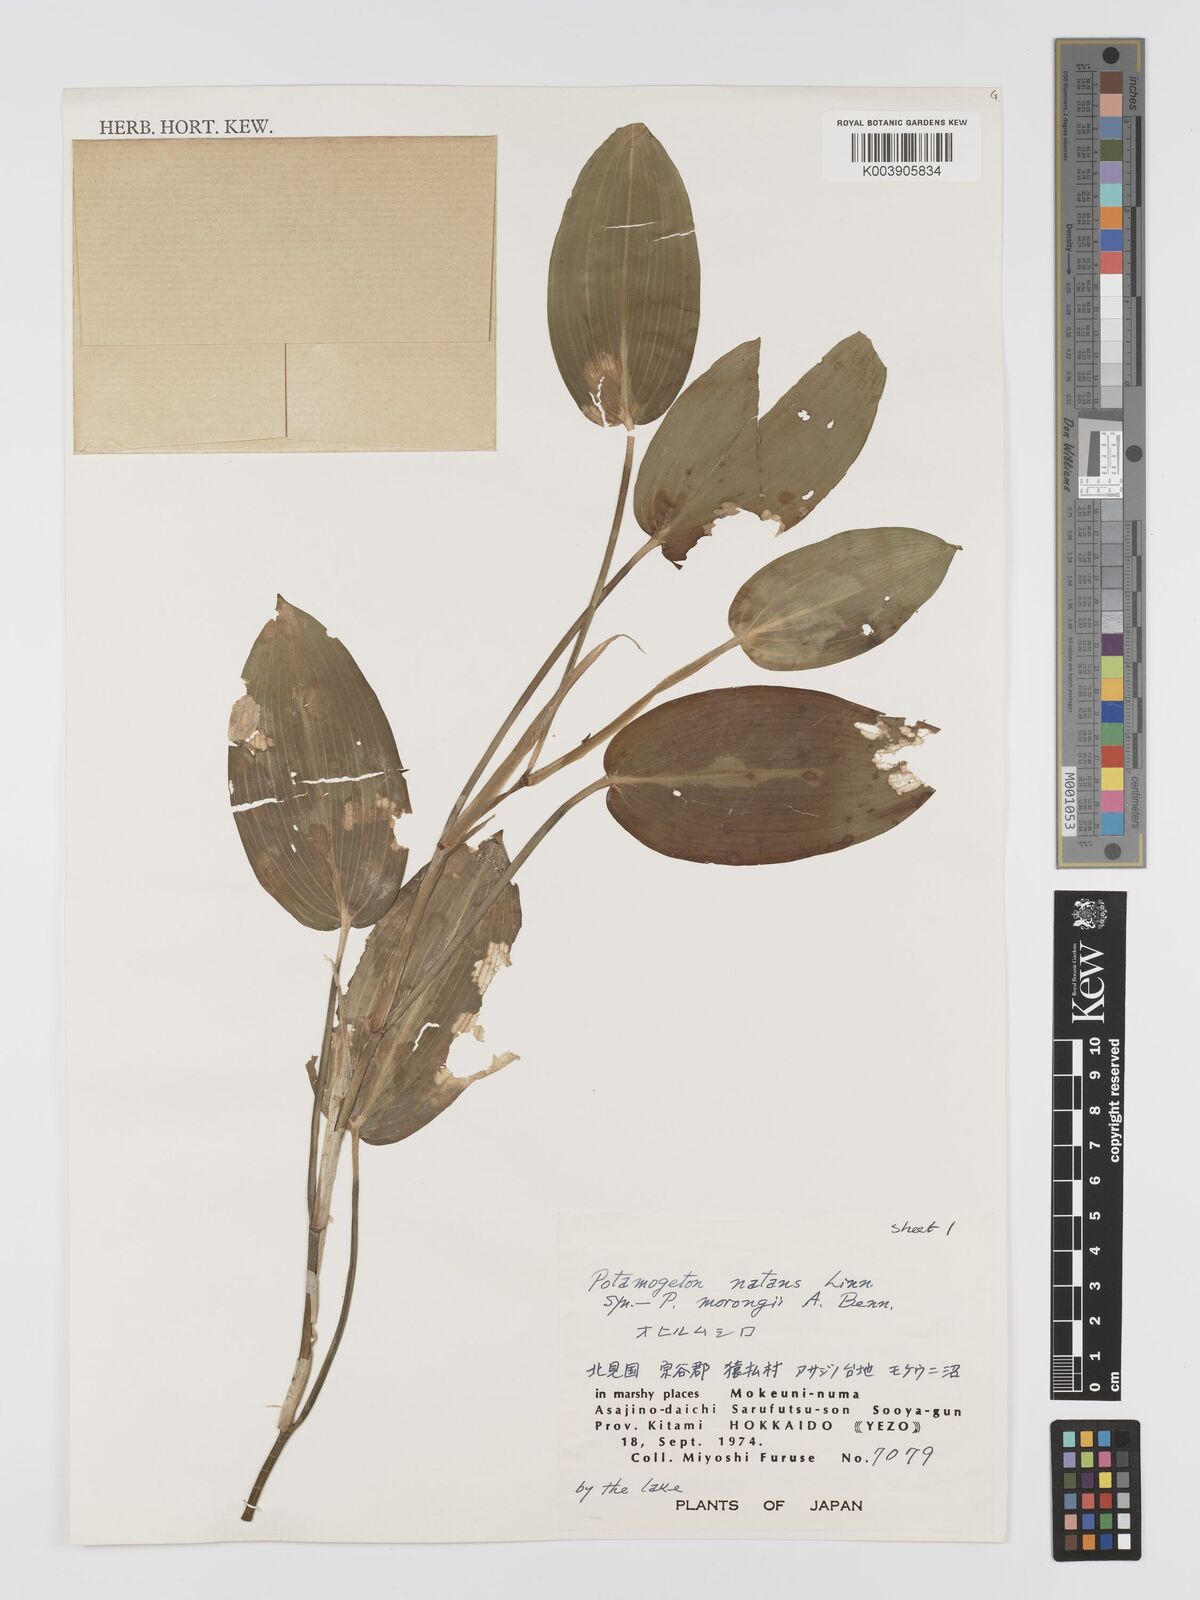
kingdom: Plantae
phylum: Tracheophyta
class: Liliopsida
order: Alismatales
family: Potamogetonaceae
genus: Potamogeton
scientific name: Potamogeton natans
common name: Broad-leaved pondweed
